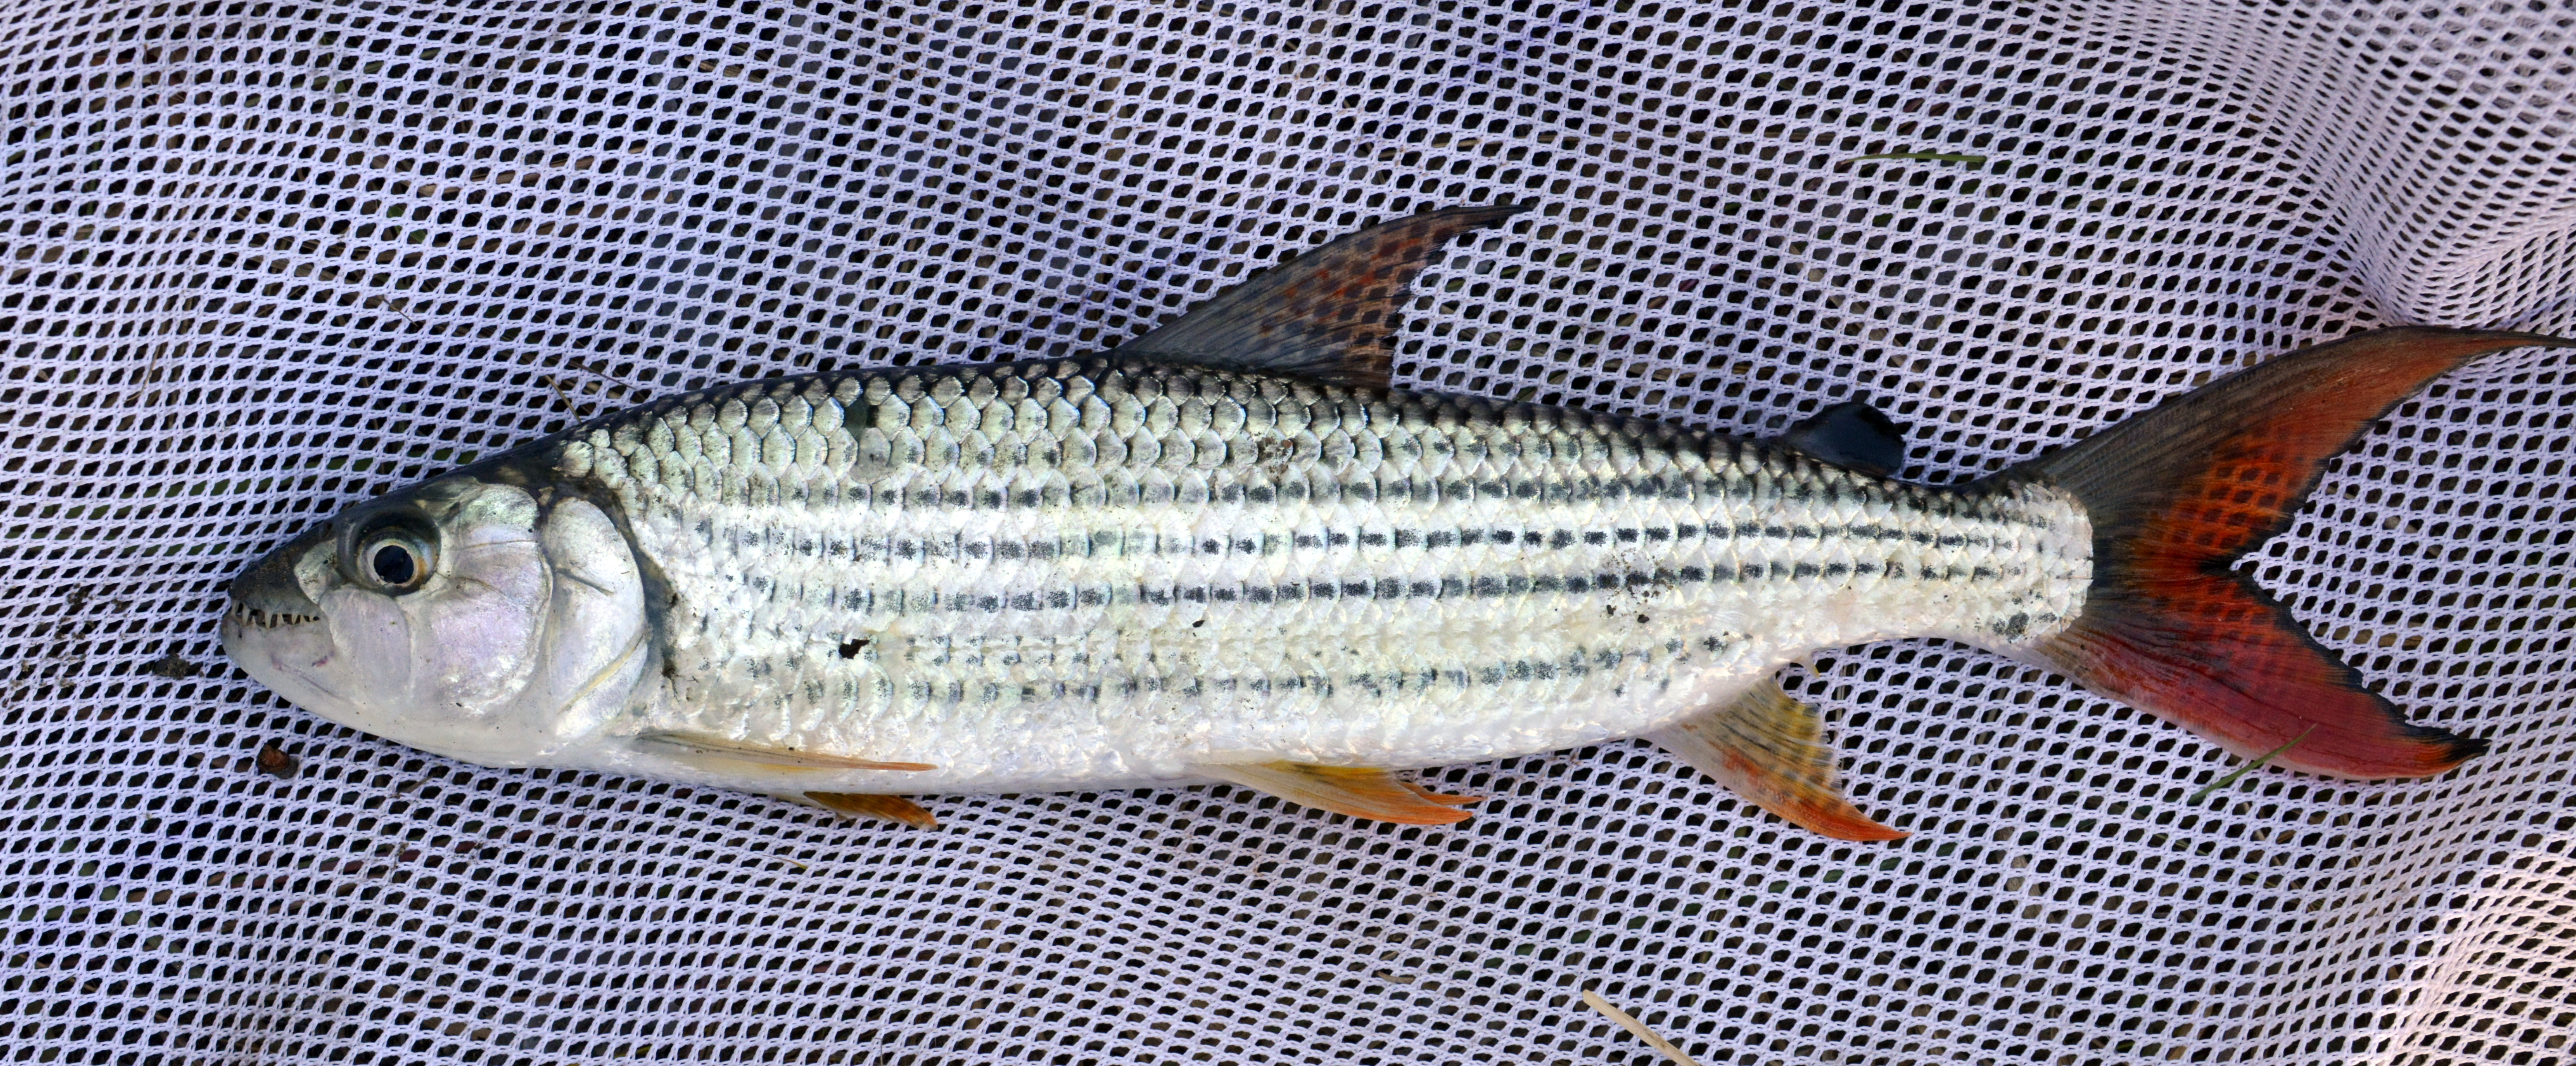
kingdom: Animalia
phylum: Chordata
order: Characiformes
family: Alestidae
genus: Hydrocynus
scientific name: Hydrocynus vittatus
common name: Tigerfish
